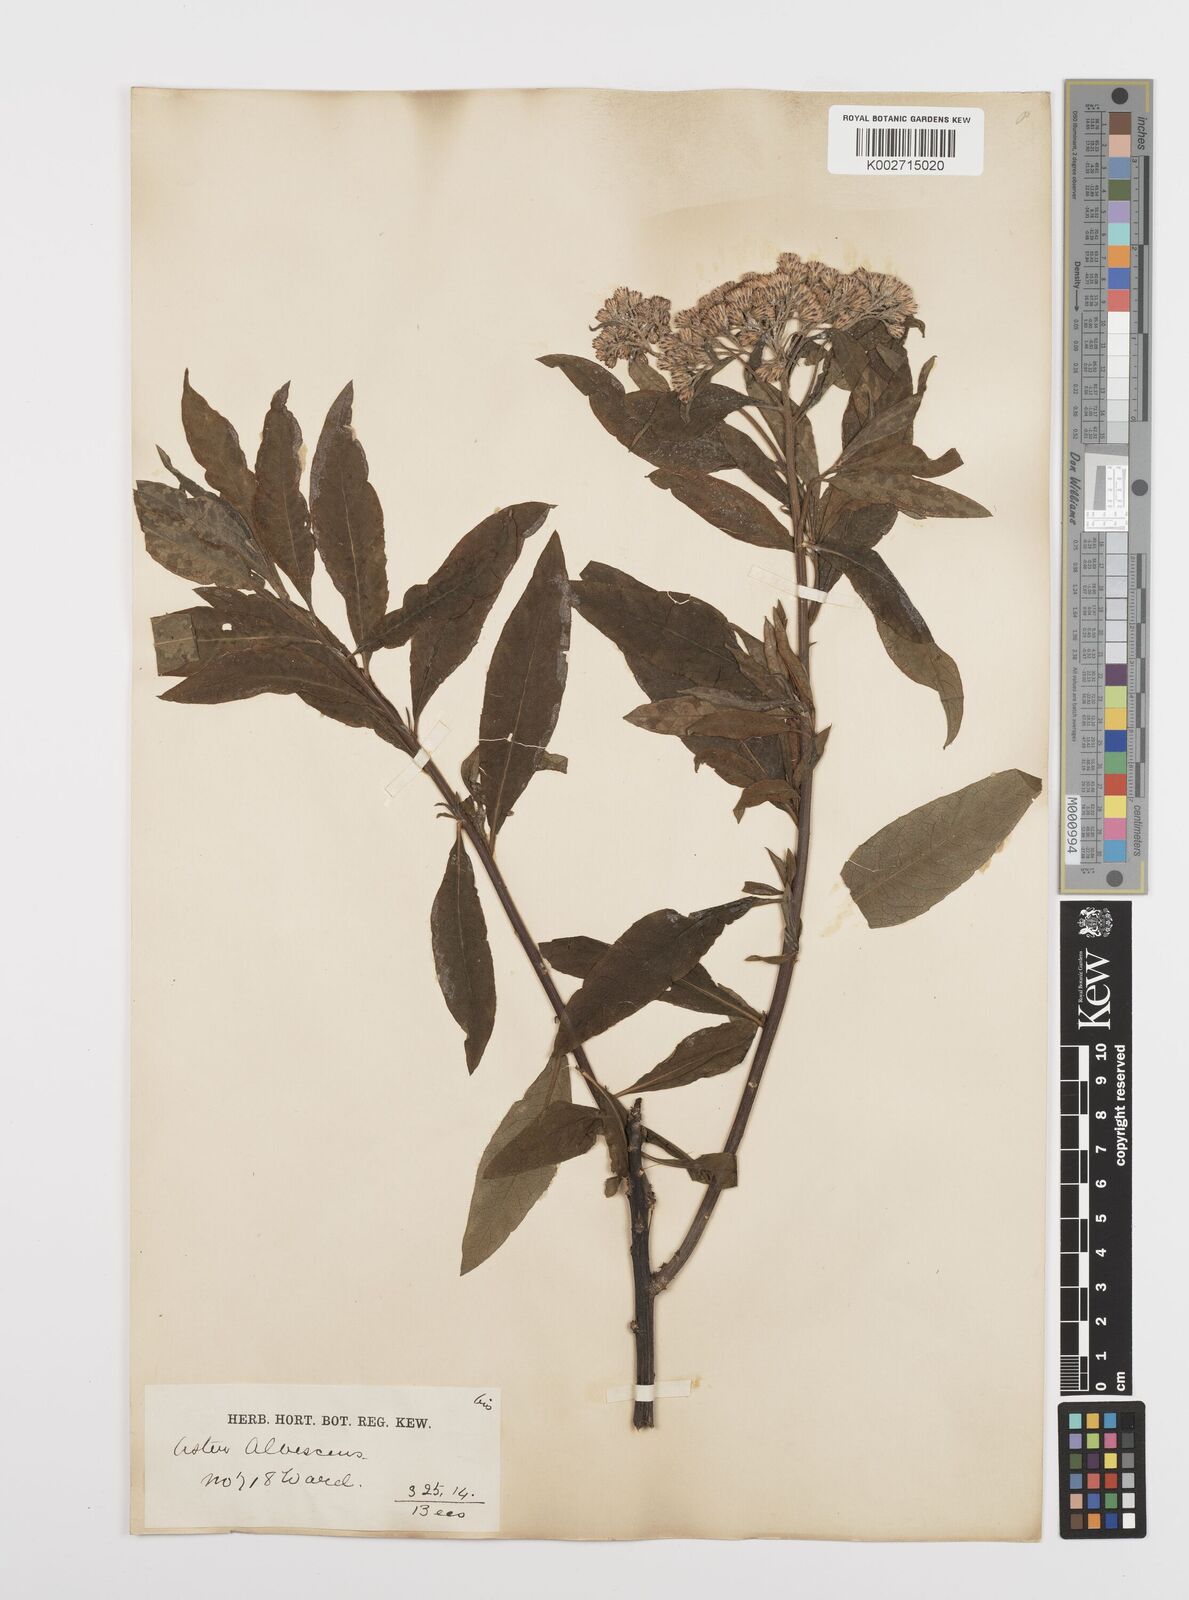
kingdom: Plantae
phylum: Tracheophyta
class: Magnoliopsida
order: Asterales
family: Asteraceae
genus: Sinosidus
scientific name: Sinosidus albescens
